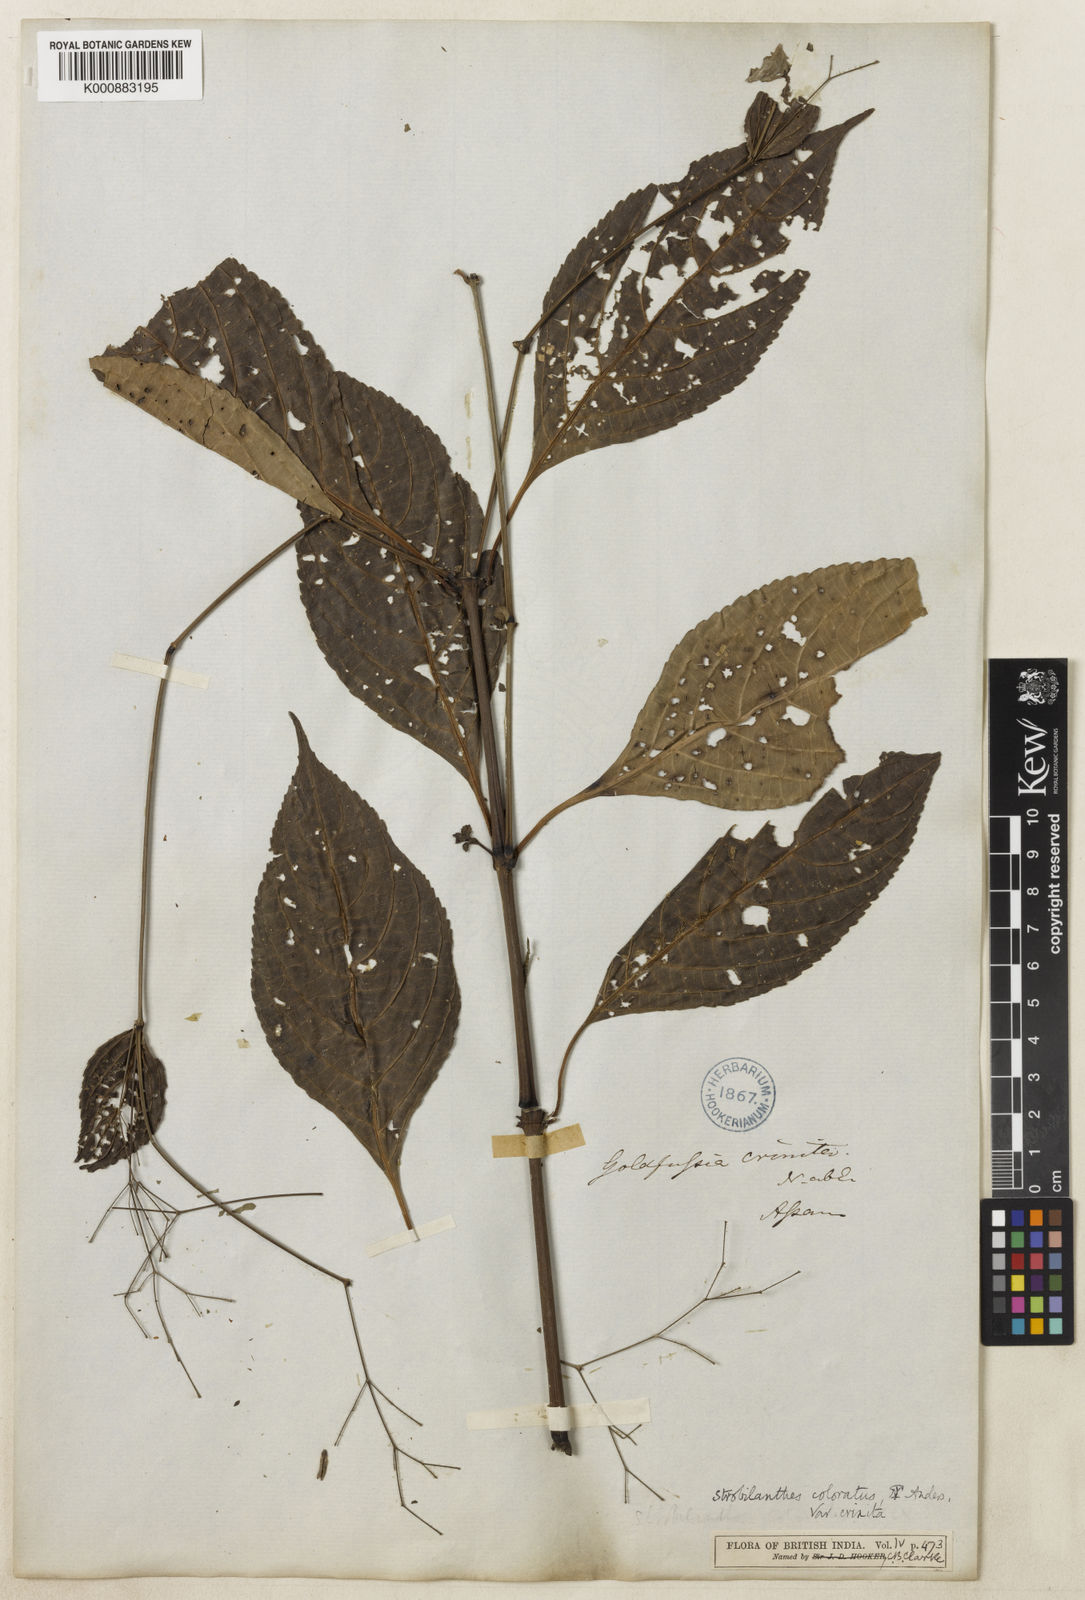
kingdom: Plantae
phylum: Tracheophyta
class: Magnoliopsida
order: Lamiales
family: Acanthaceae
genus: Strobilanthes
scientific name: Strobilanthes
